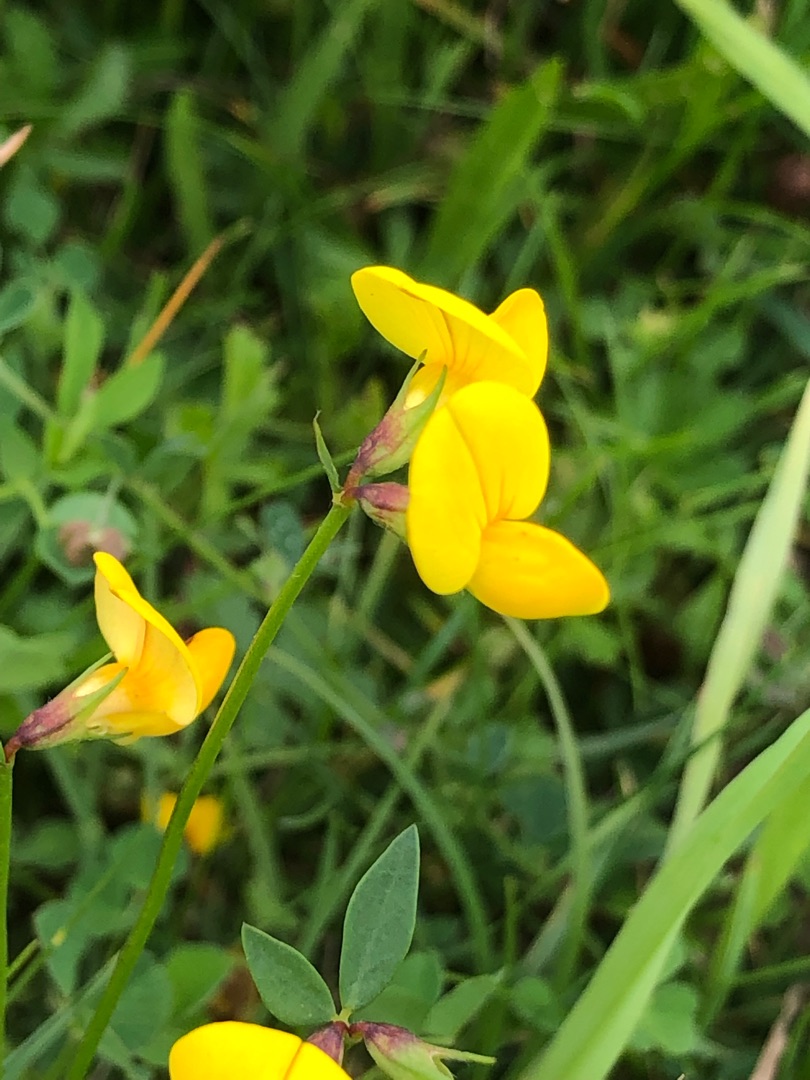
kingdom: Plantae
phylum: Tracheophyta
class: Magnoliopsida
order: Fabales
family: Fabaceae
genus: Lotus
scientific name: Lotus corniculatus
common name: Almindelig kællingetand
